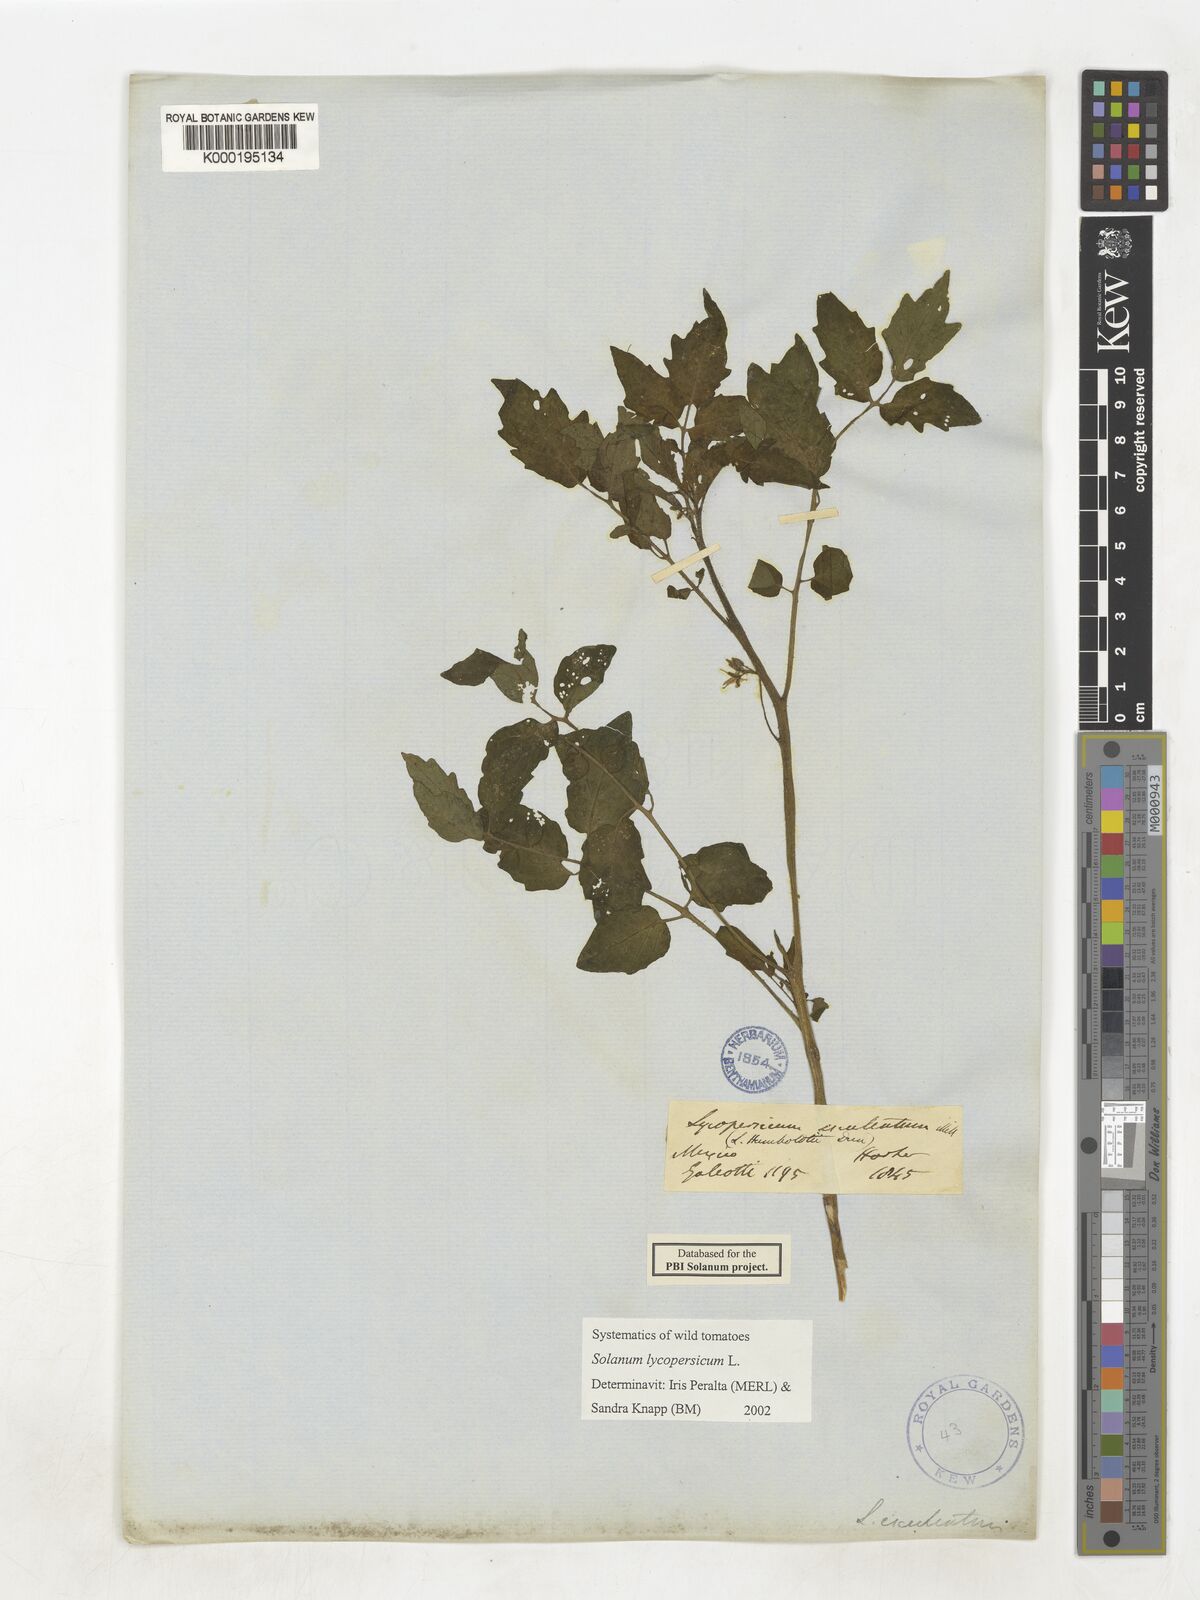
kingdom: Plantae
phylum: Tracheophyta
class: Magnoliopsida
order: Solanales
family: Solanaceae
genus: Solanum
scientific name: Solanum lycopersicum
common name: Garden tomato
